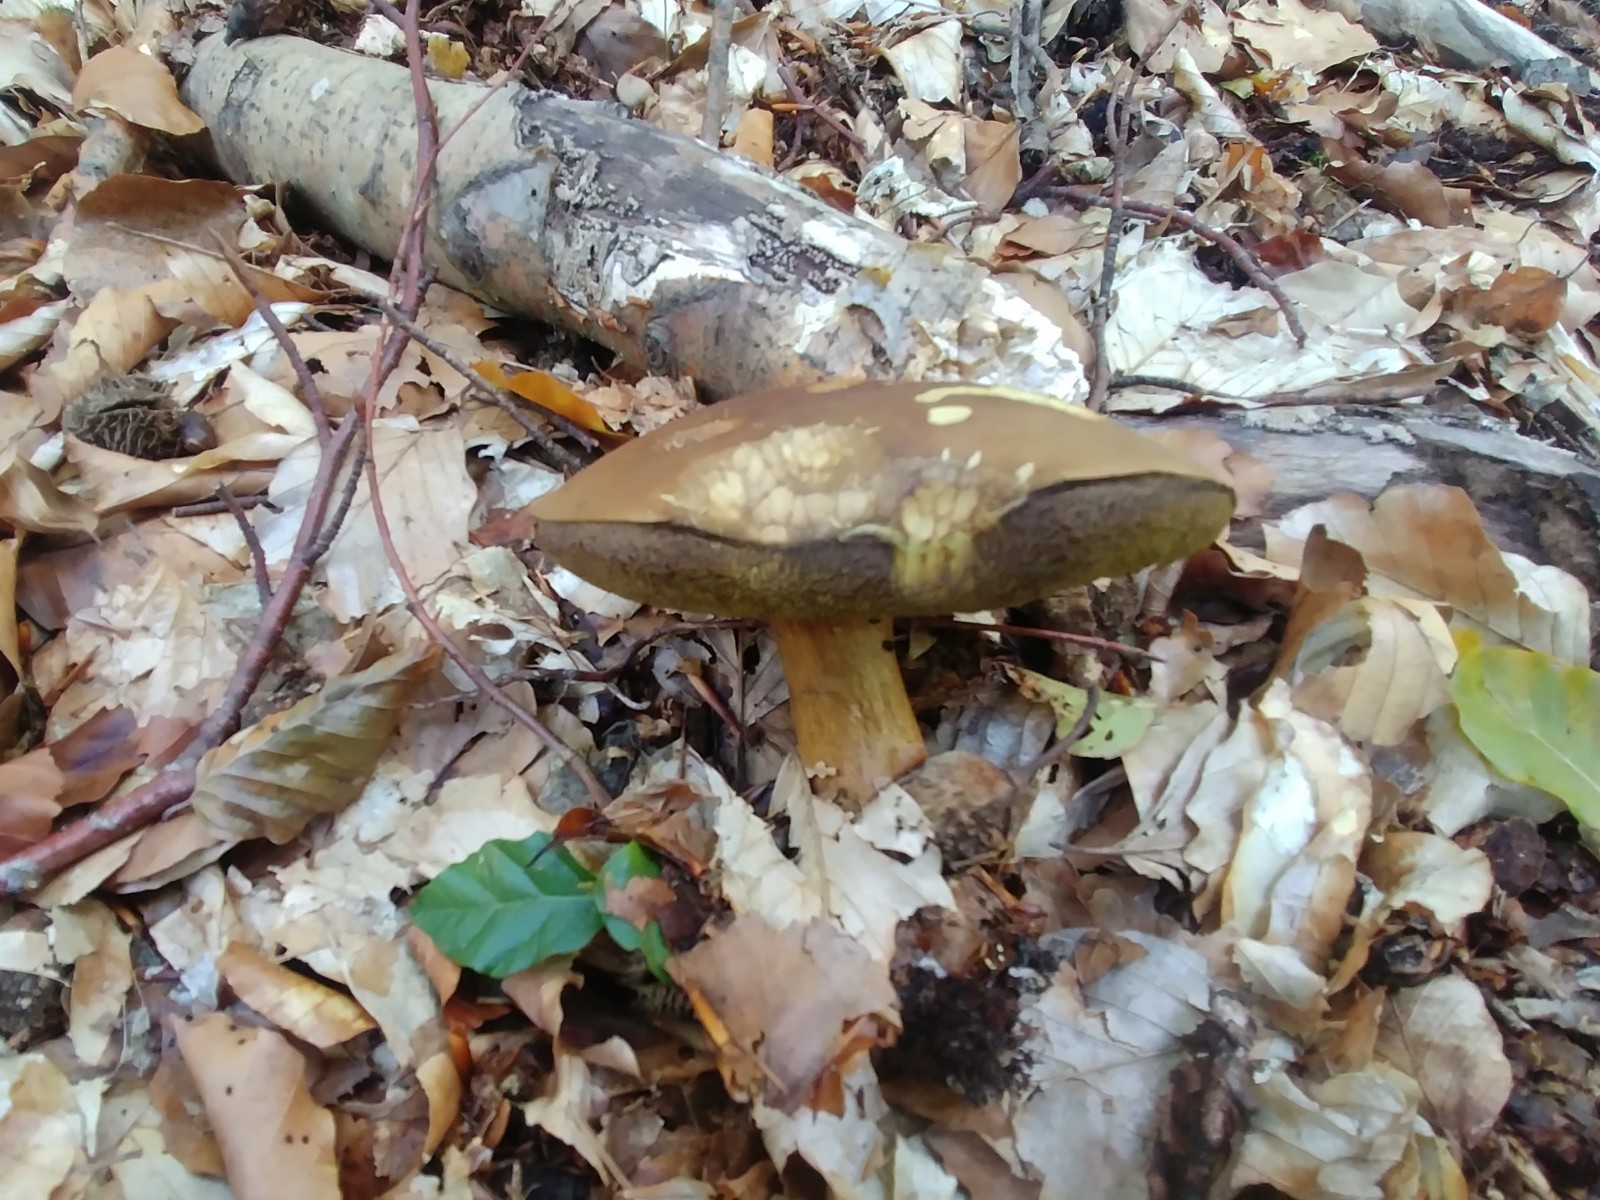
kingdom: Fungi
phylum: Basidiomycota
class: Agaricomycetes
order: Boletales
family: Boletaceae
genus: Tylopilus
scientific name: Tylopilus felleus
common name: galderørhat
